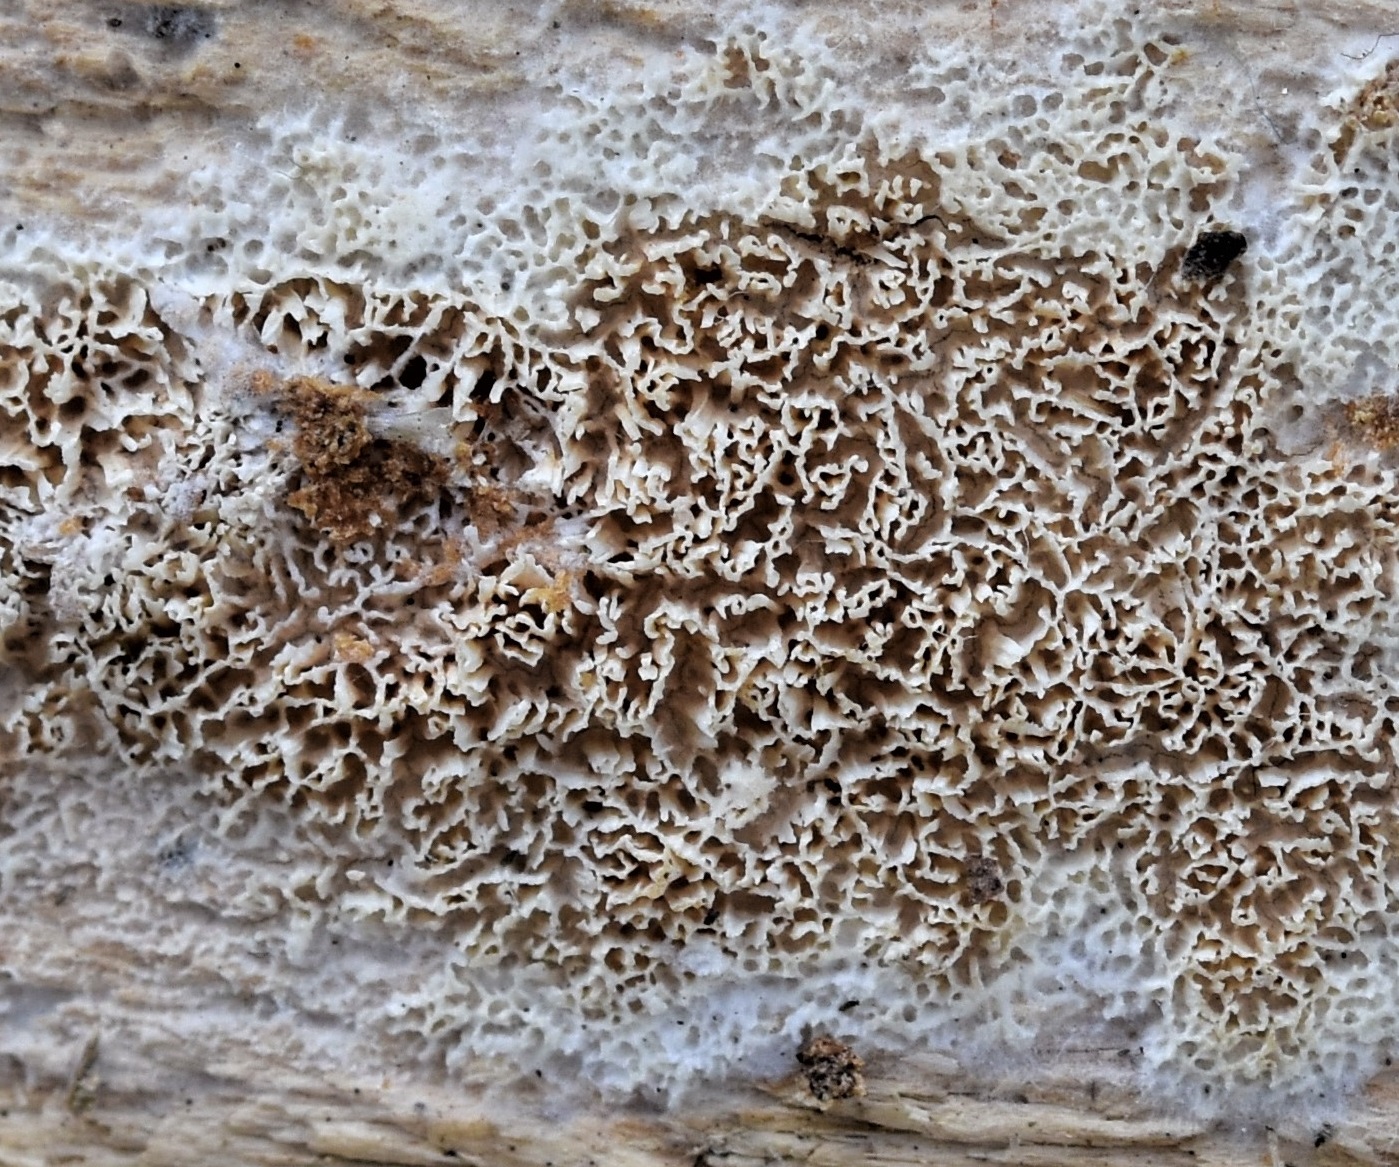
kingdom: Fungi
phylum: Basidiomycota
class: Agaricomycetes
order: Hymenochaetales
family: Schizoporaceae
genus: Xylodon
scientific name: Xylodon subtropicus
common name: labyrint-tandsvamp
